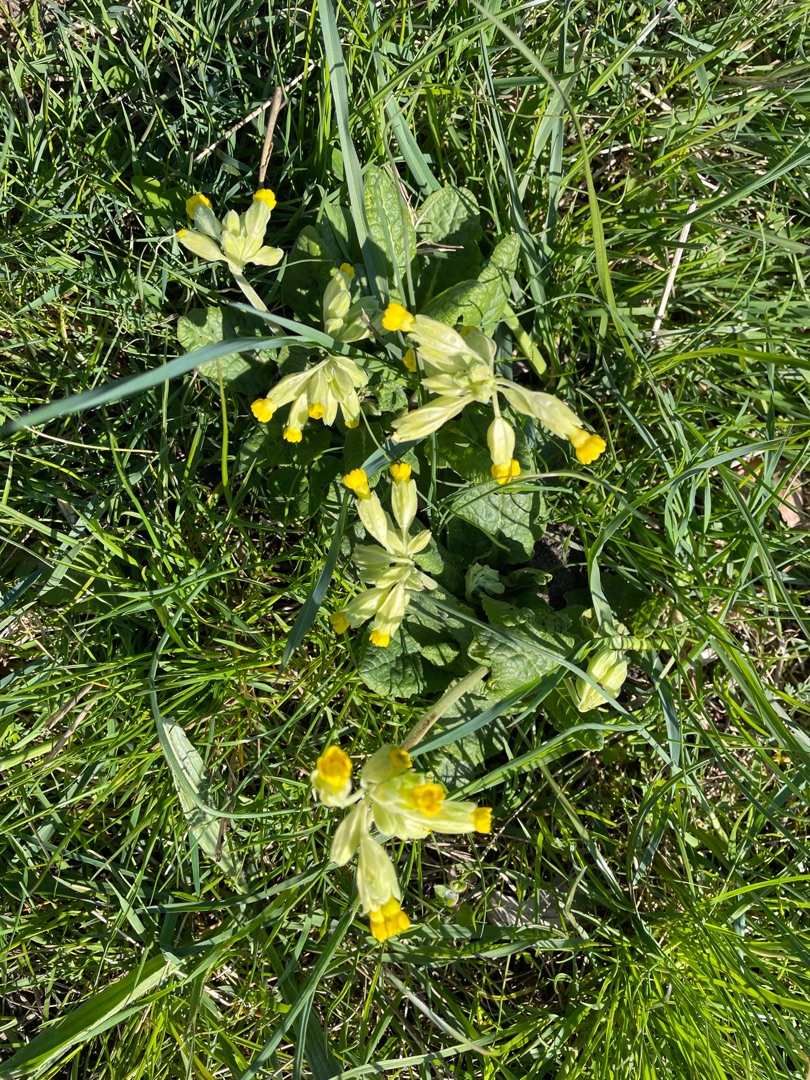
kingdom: Plantae
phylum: Tracheophyta
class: Magnoliopsida
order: Ericales
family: Primulaceae
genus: Primula
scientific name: Primula veris
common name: Hulkravet kodriver
